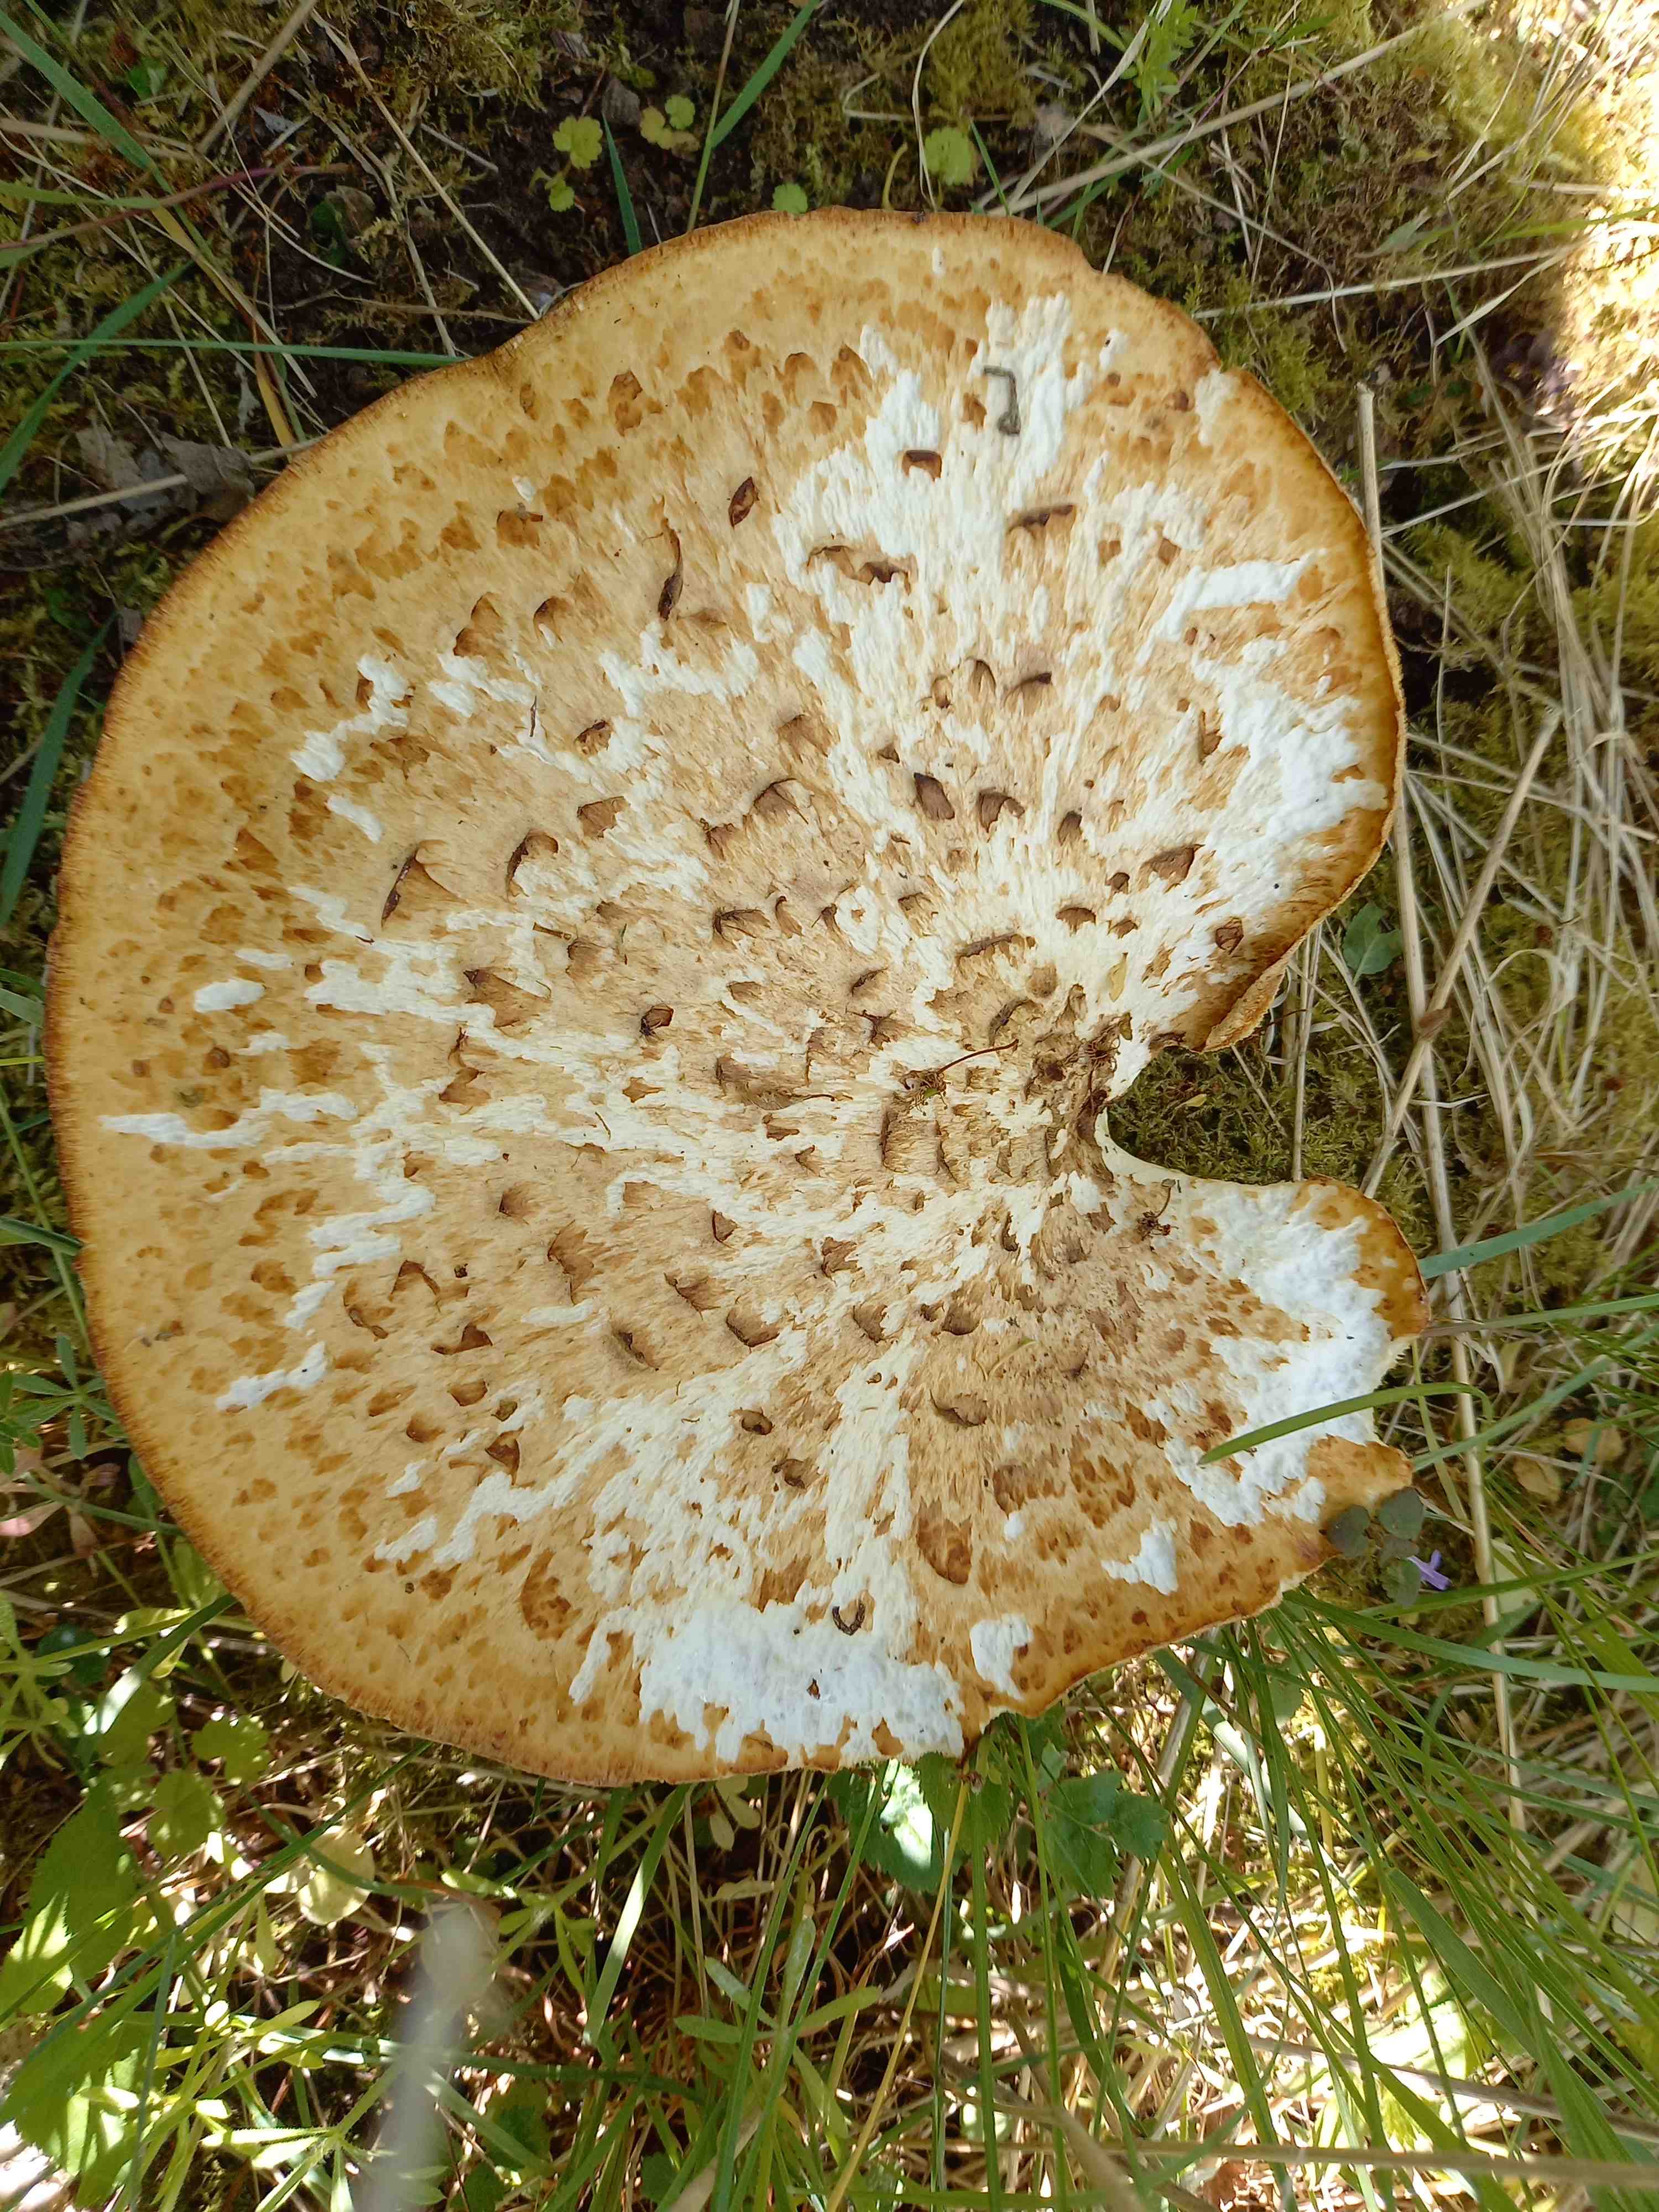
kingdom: Fungi
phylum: Basidiomycota
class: Agaricomycetes
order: Polyporales
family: Polyporaceae
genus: Cerioporus
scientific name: Cerioporus squamosus
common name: skællet stilkporesvamp
